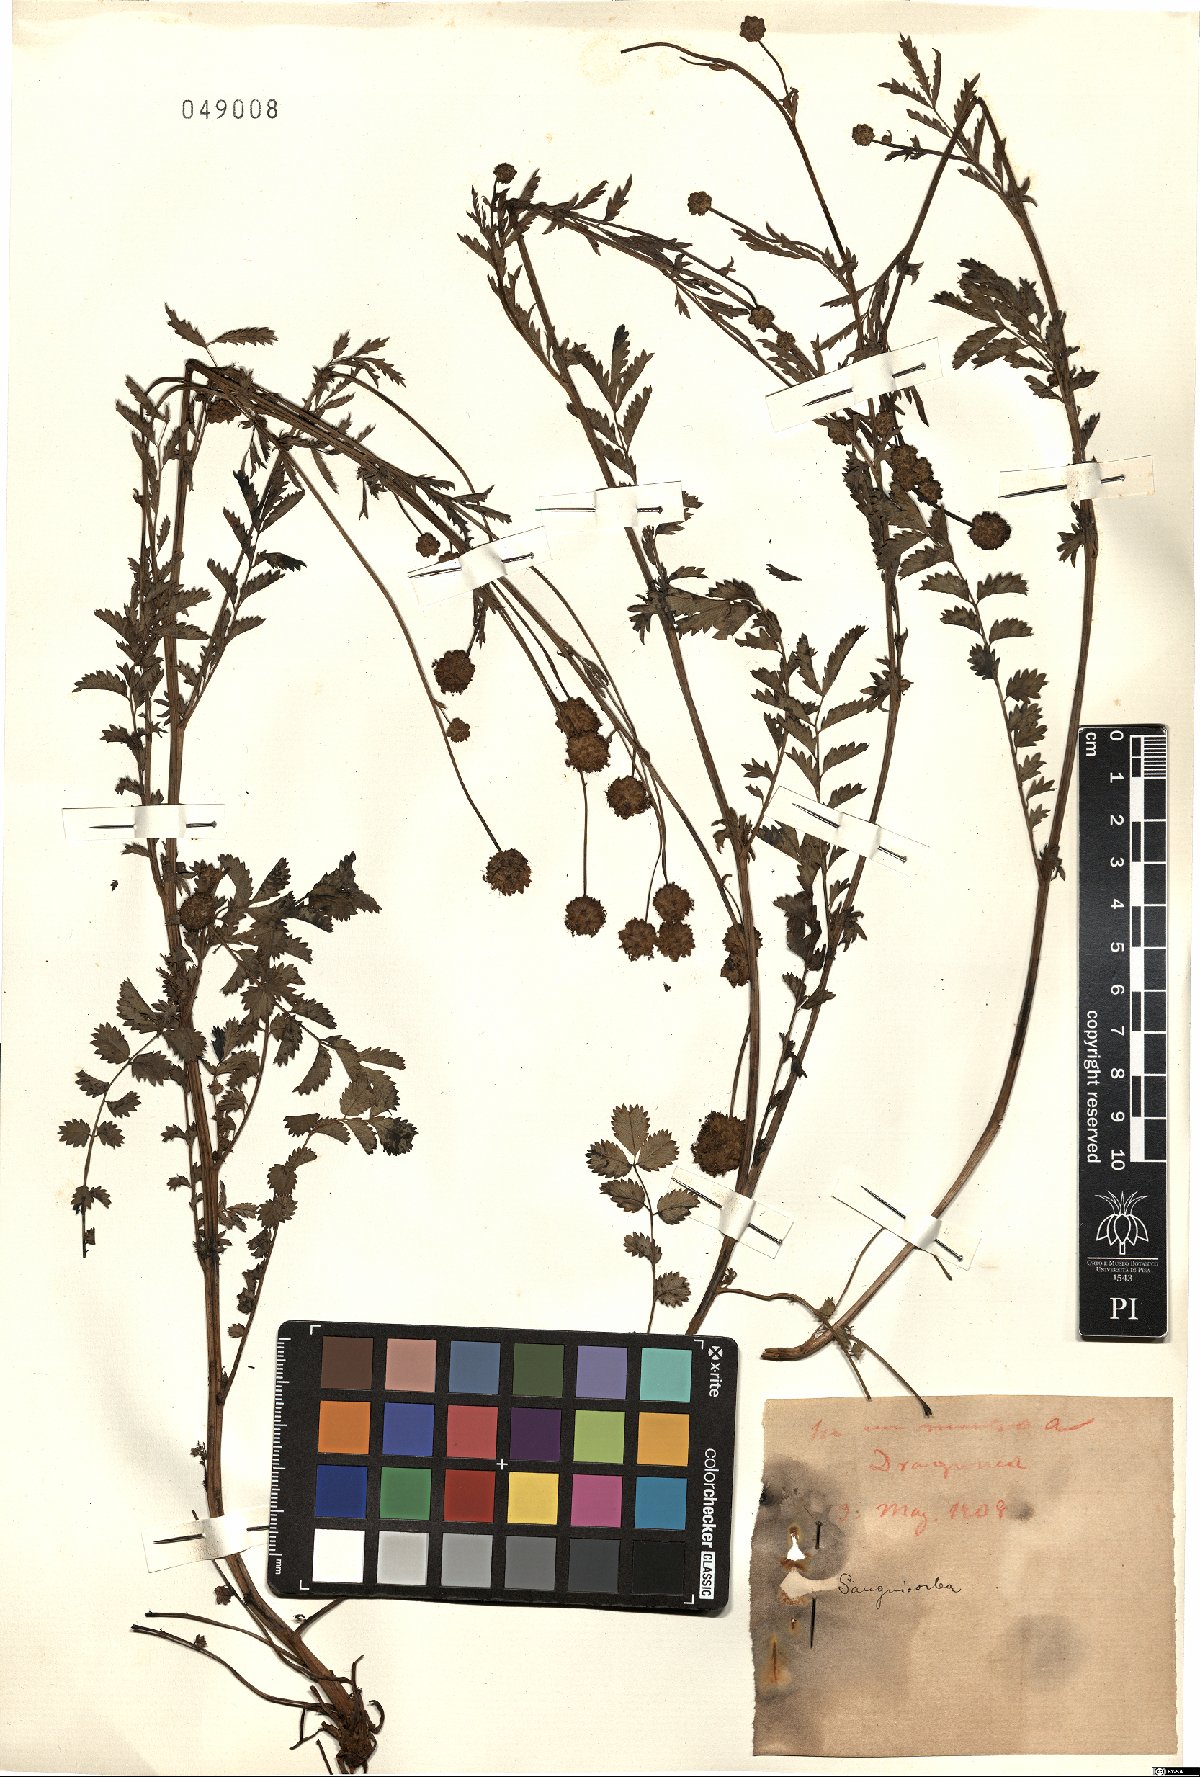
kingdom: Plantae
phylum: Tracheophyta
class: Magnoliopsida
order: Rosales
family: Rosaceae
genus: Sanguisorba
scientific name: Sanguisorba
